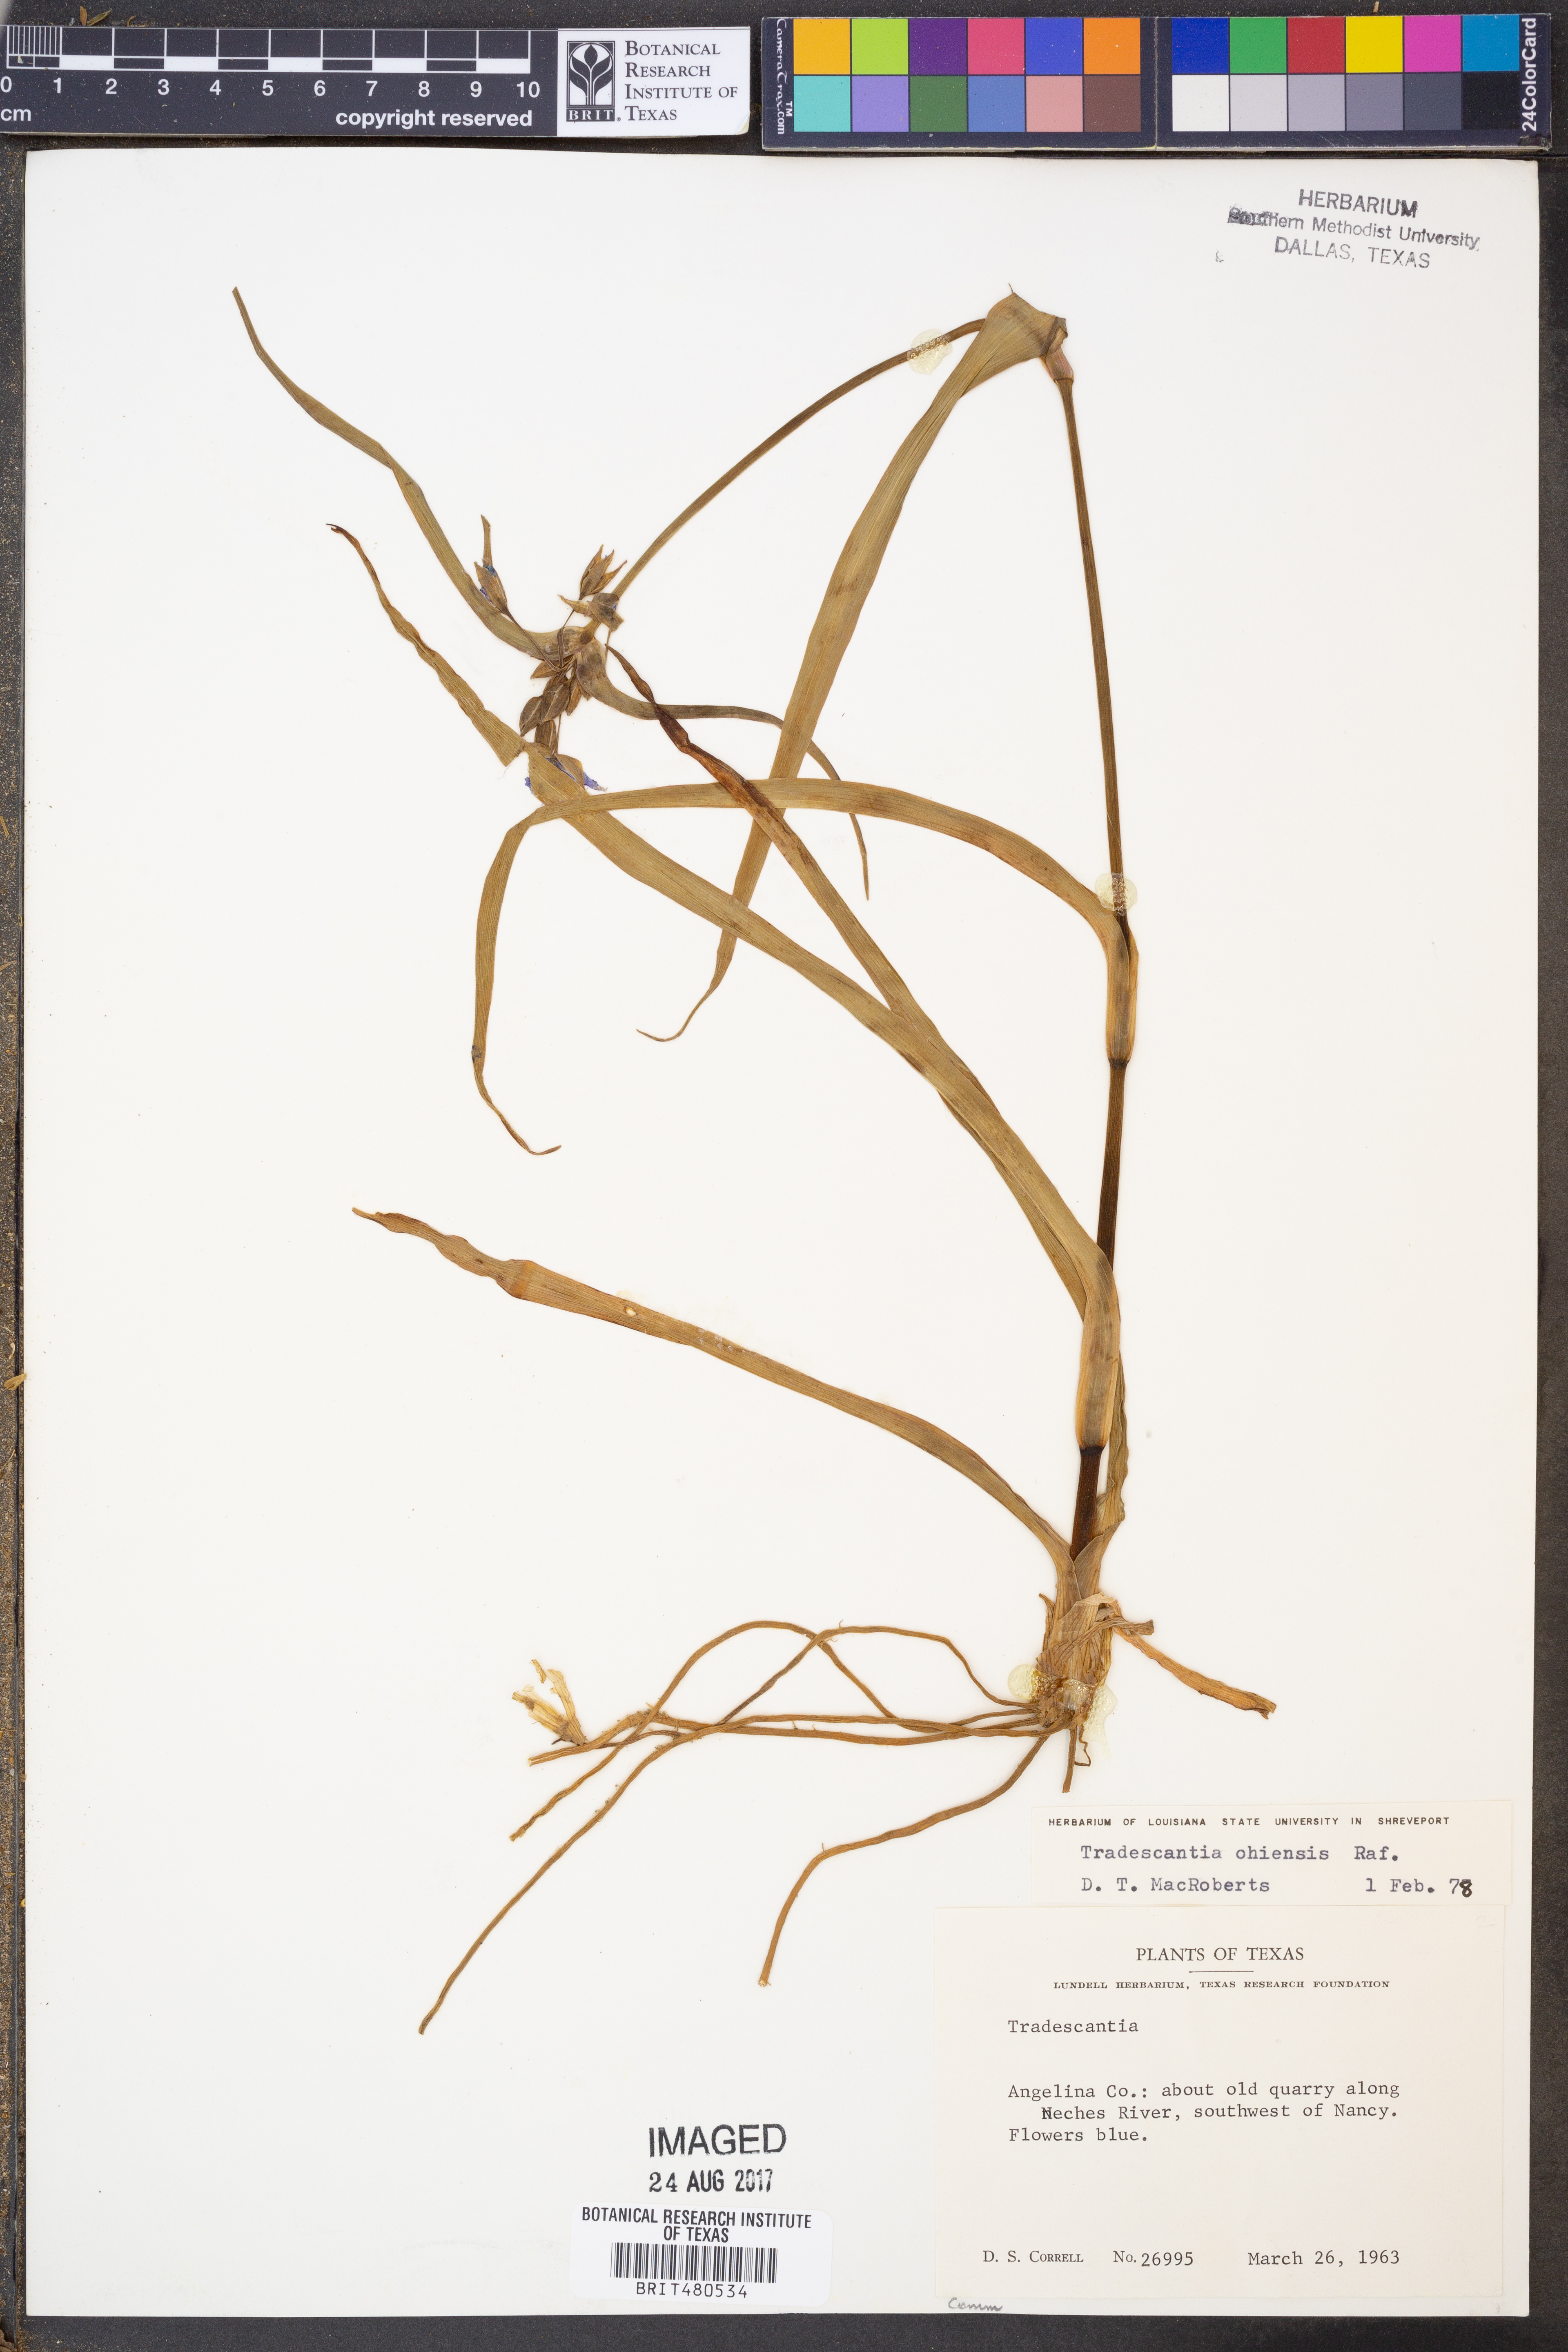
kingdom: Plantae
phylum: Tracheophyta
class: Liliopsida
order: Commelinales
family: Commelinaceae
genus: Tradescantia
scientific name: Tradescantia ohiensis
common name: Ohio spiderwort
